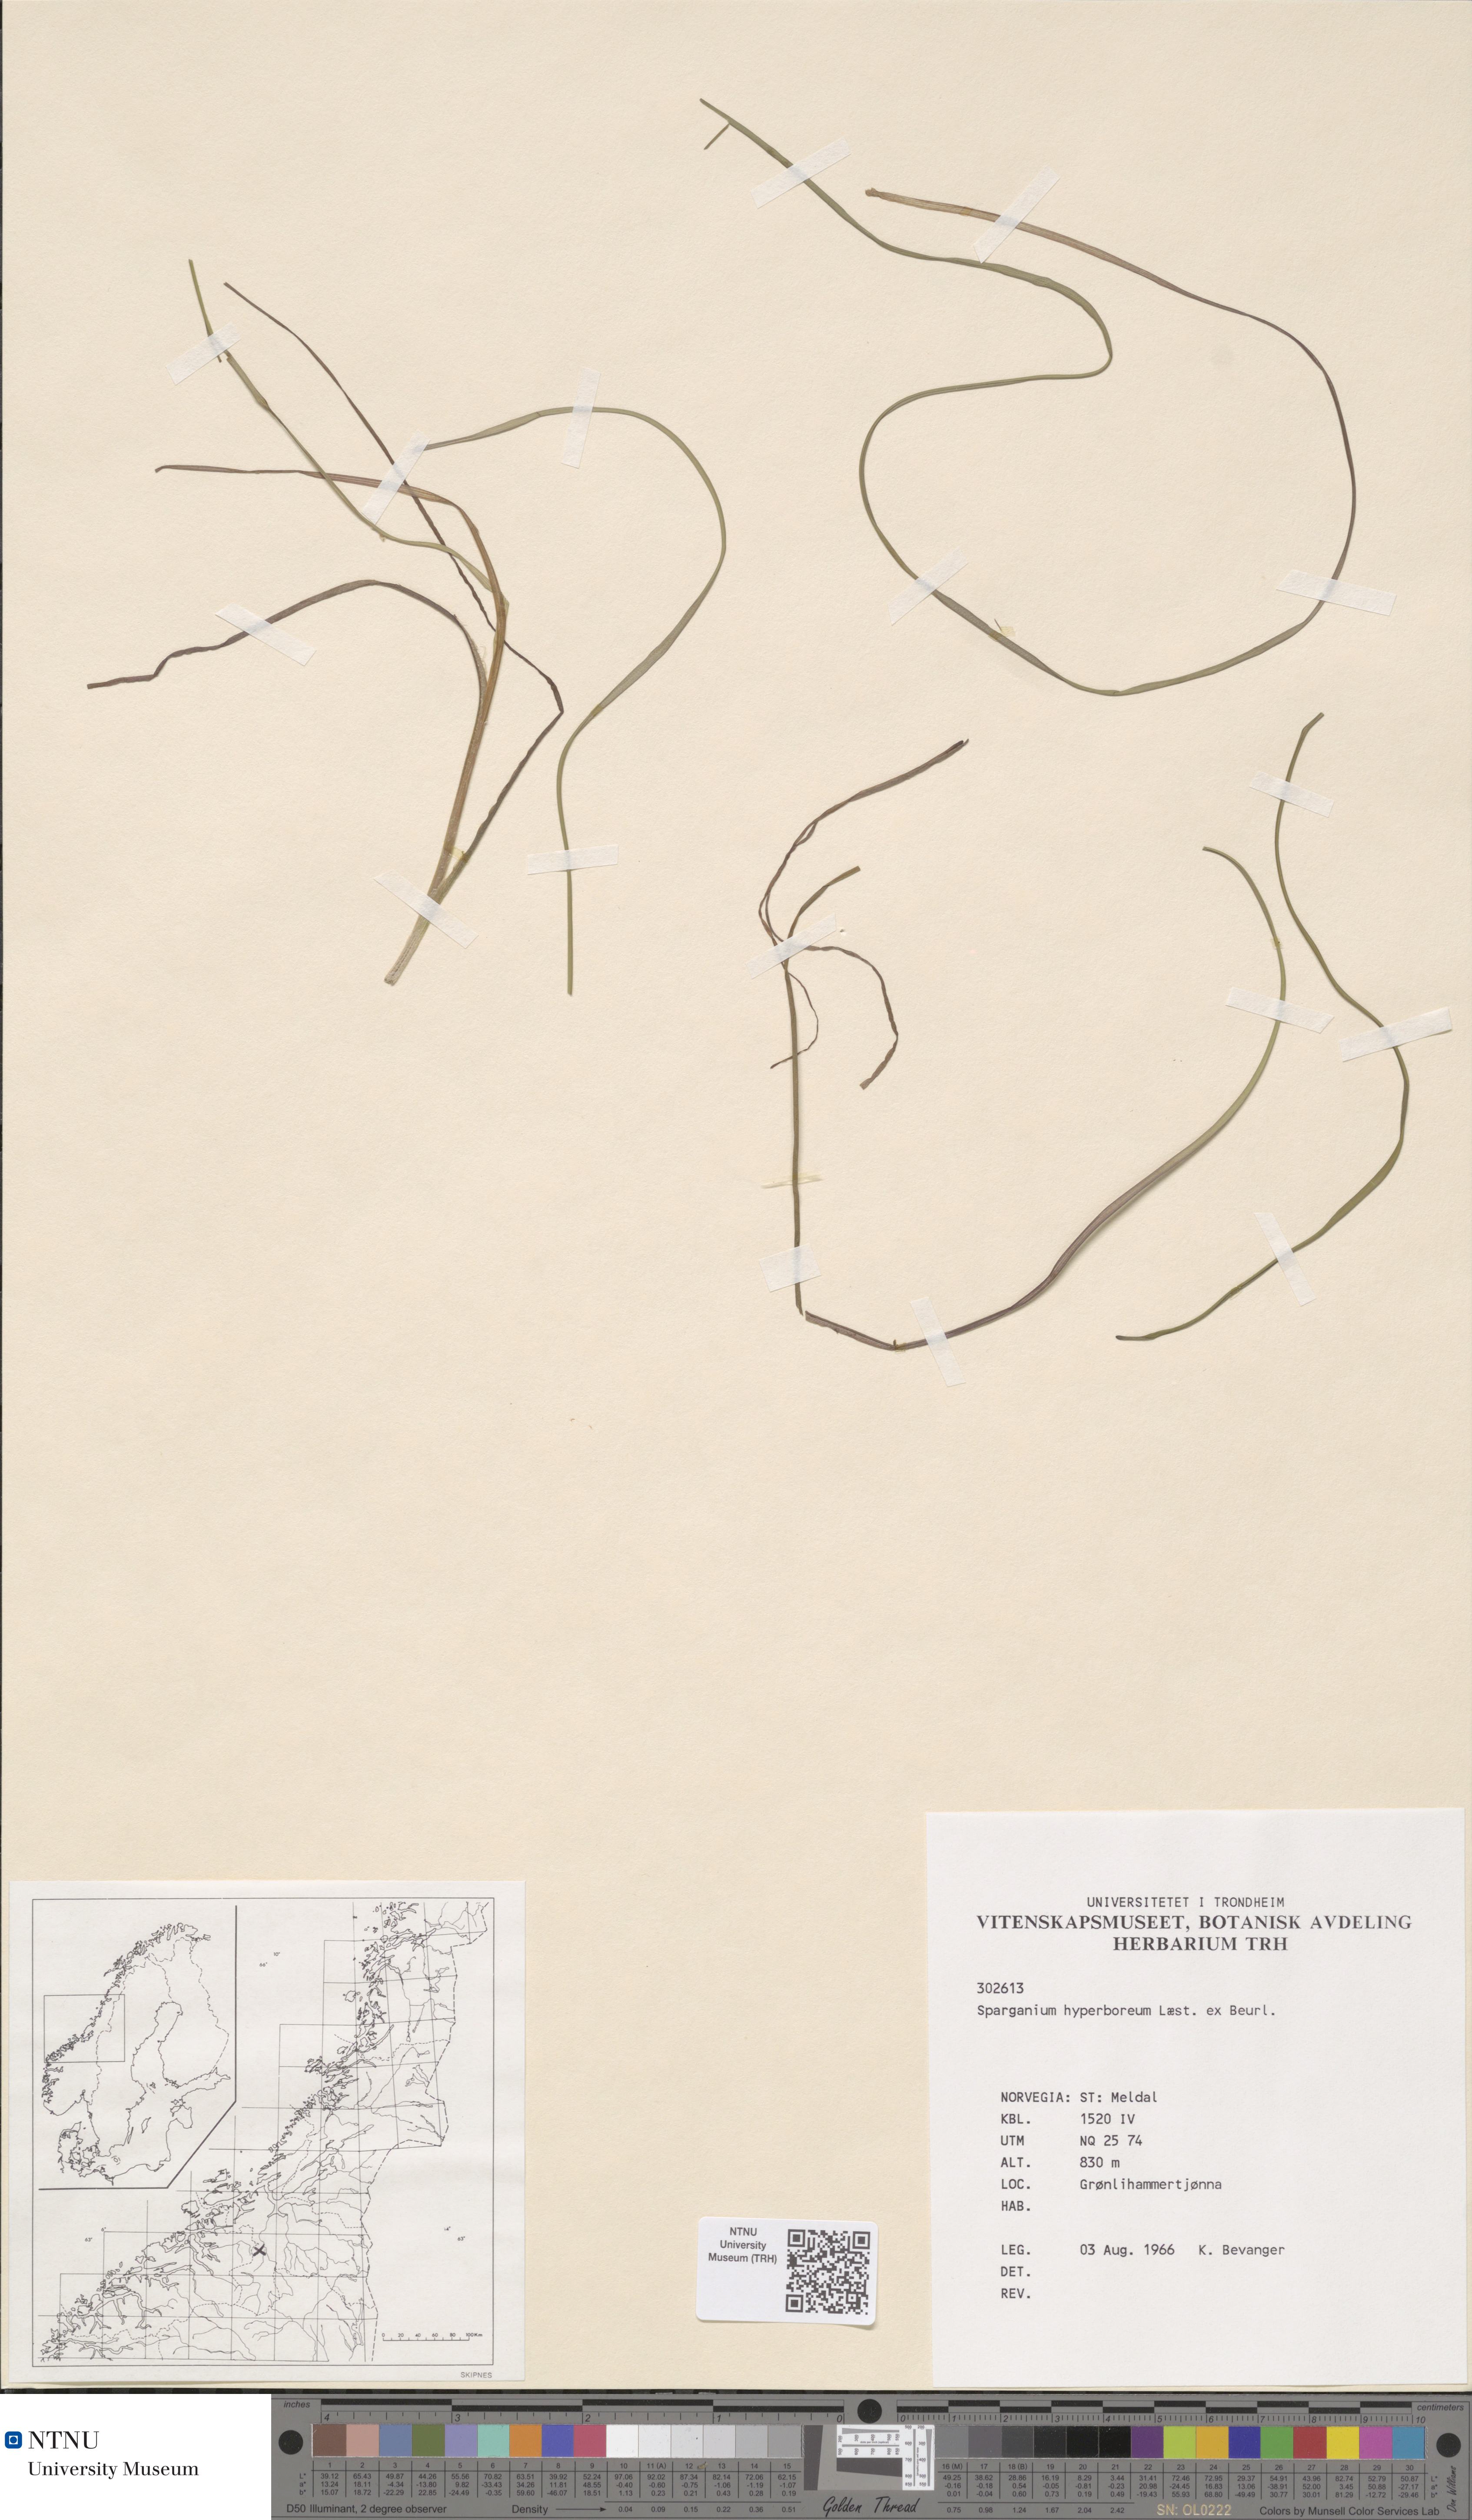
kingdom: Plantae
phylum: Tracheophyta
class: Liliopsida
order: Poales
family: Typhaceae
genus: Sparganium
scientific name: Sparganium hyperboreum
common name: Arctic burreed
